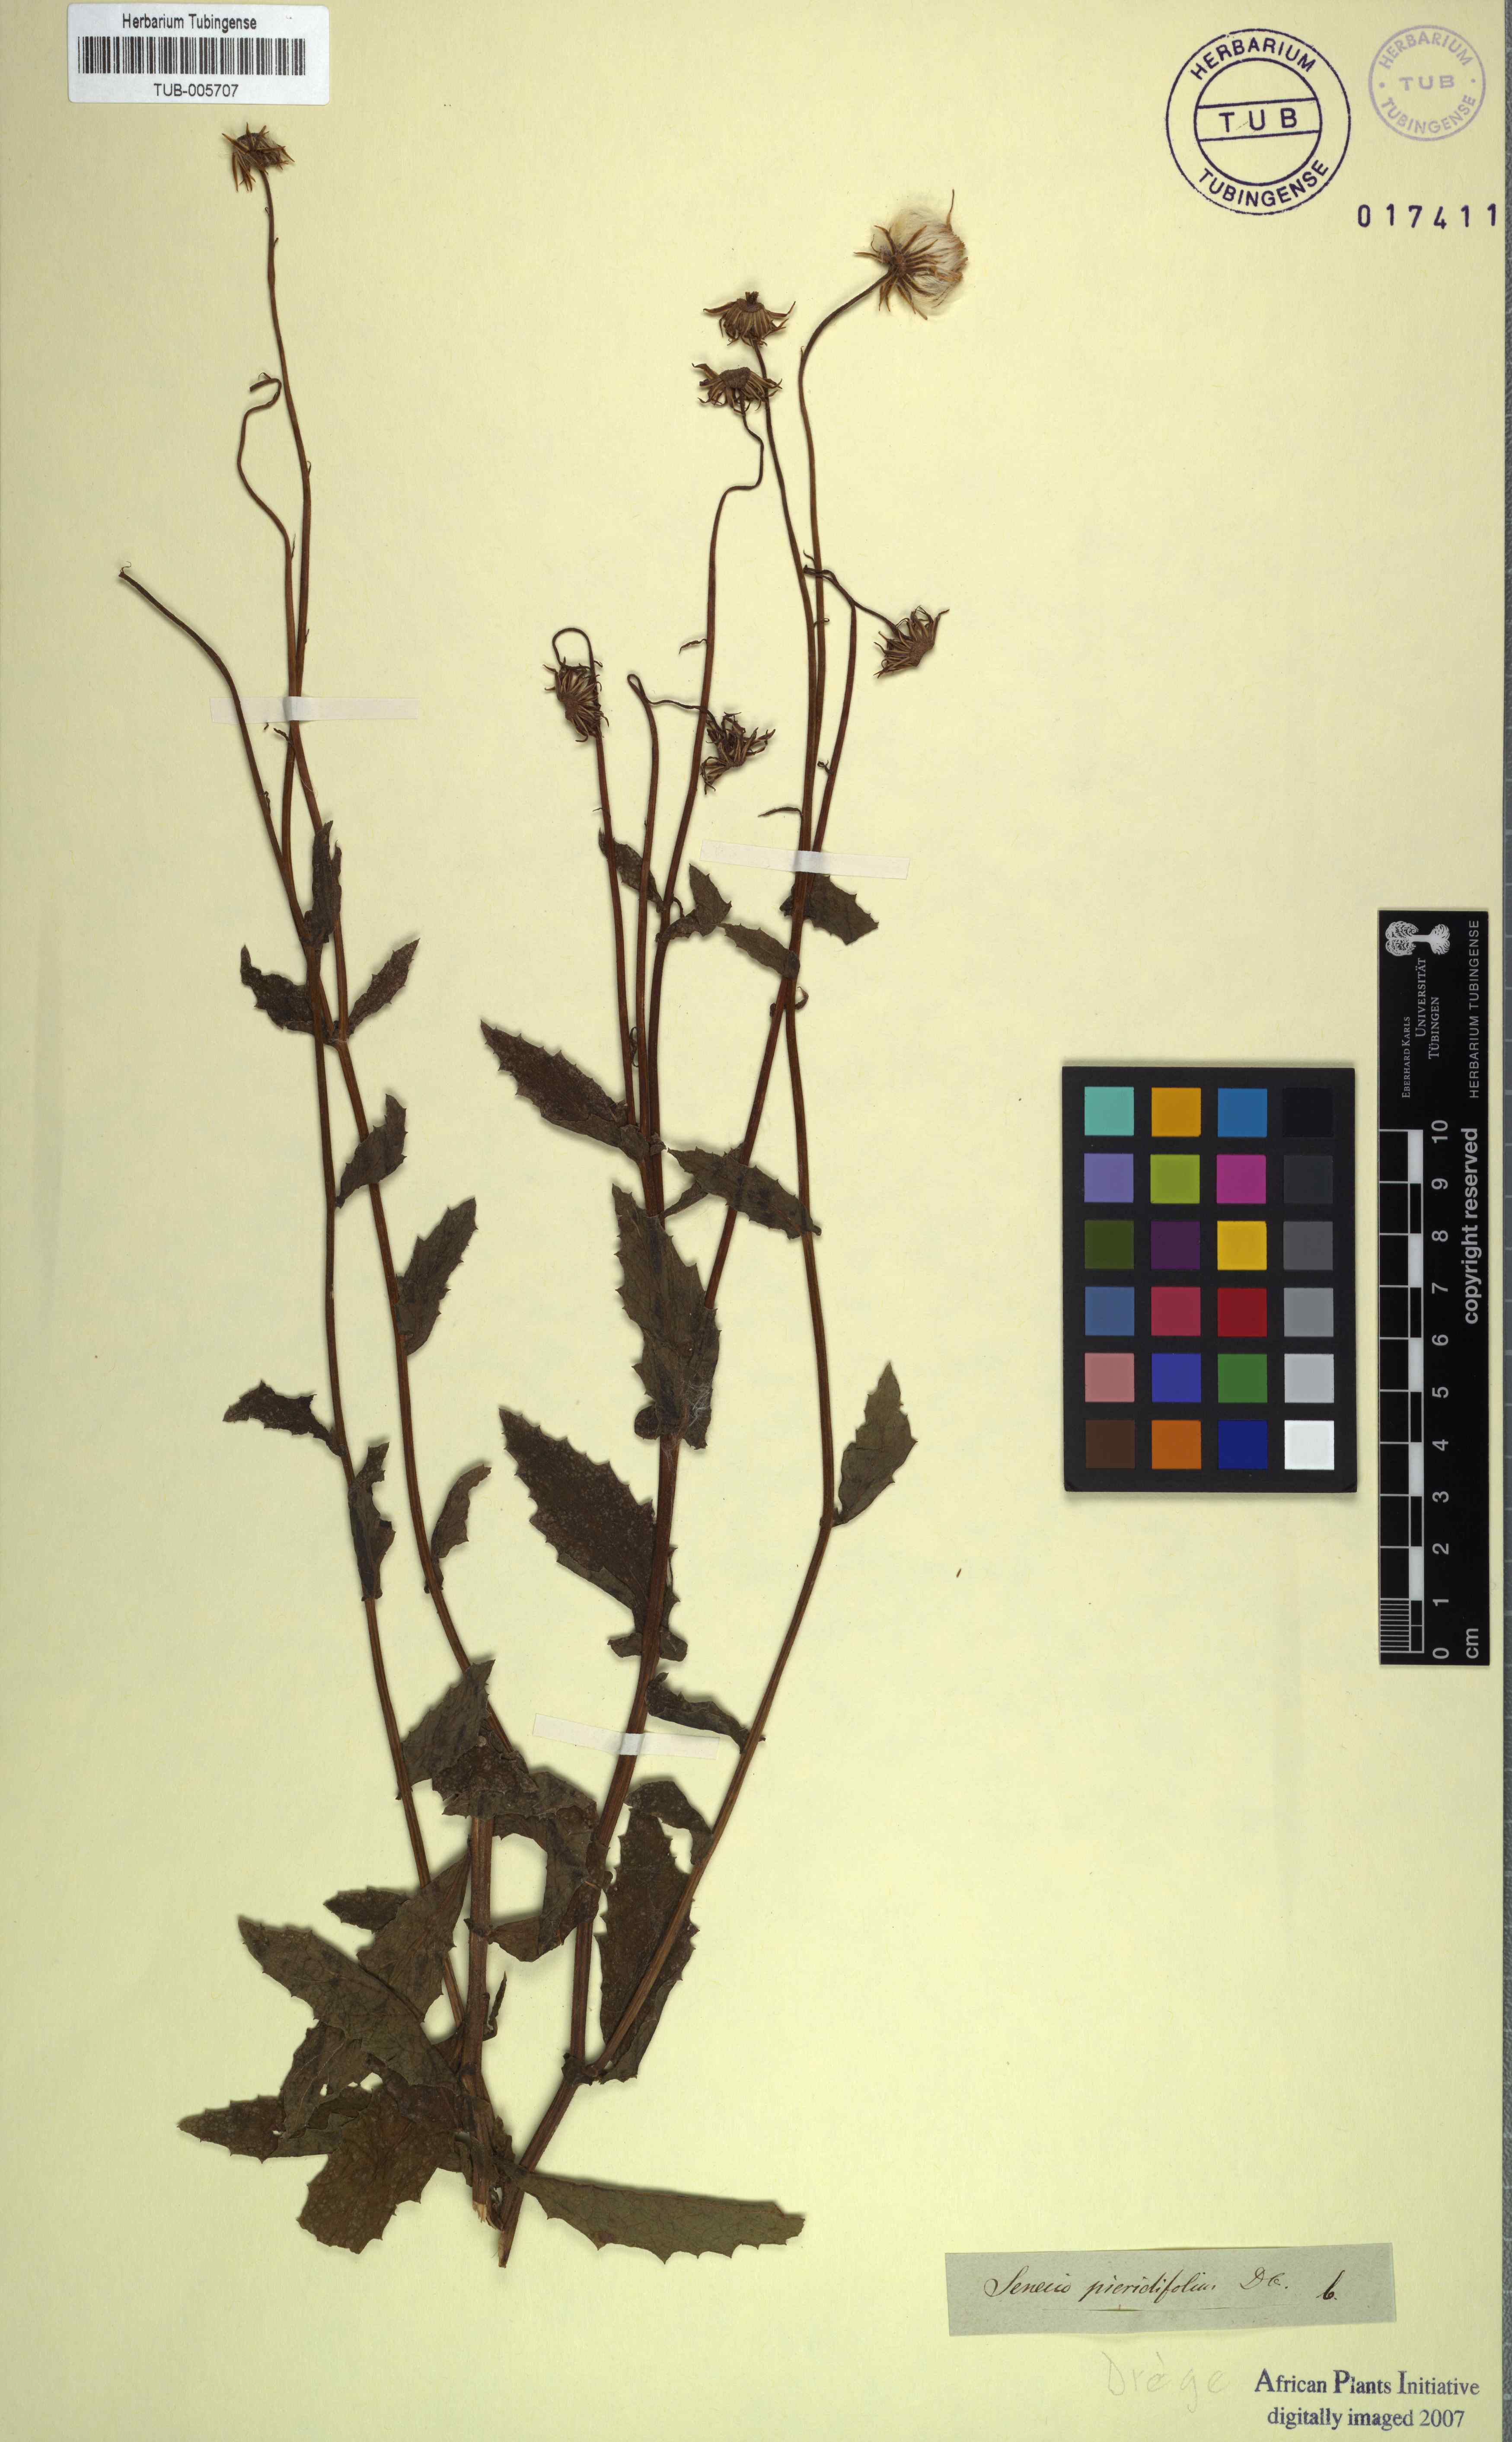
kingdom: Plantae
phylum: Tracheophyta
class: Magnoliopsida
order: Asterales
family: Asteraceae
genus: Crassocephalum
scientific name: Crassocephalum picridifolium
